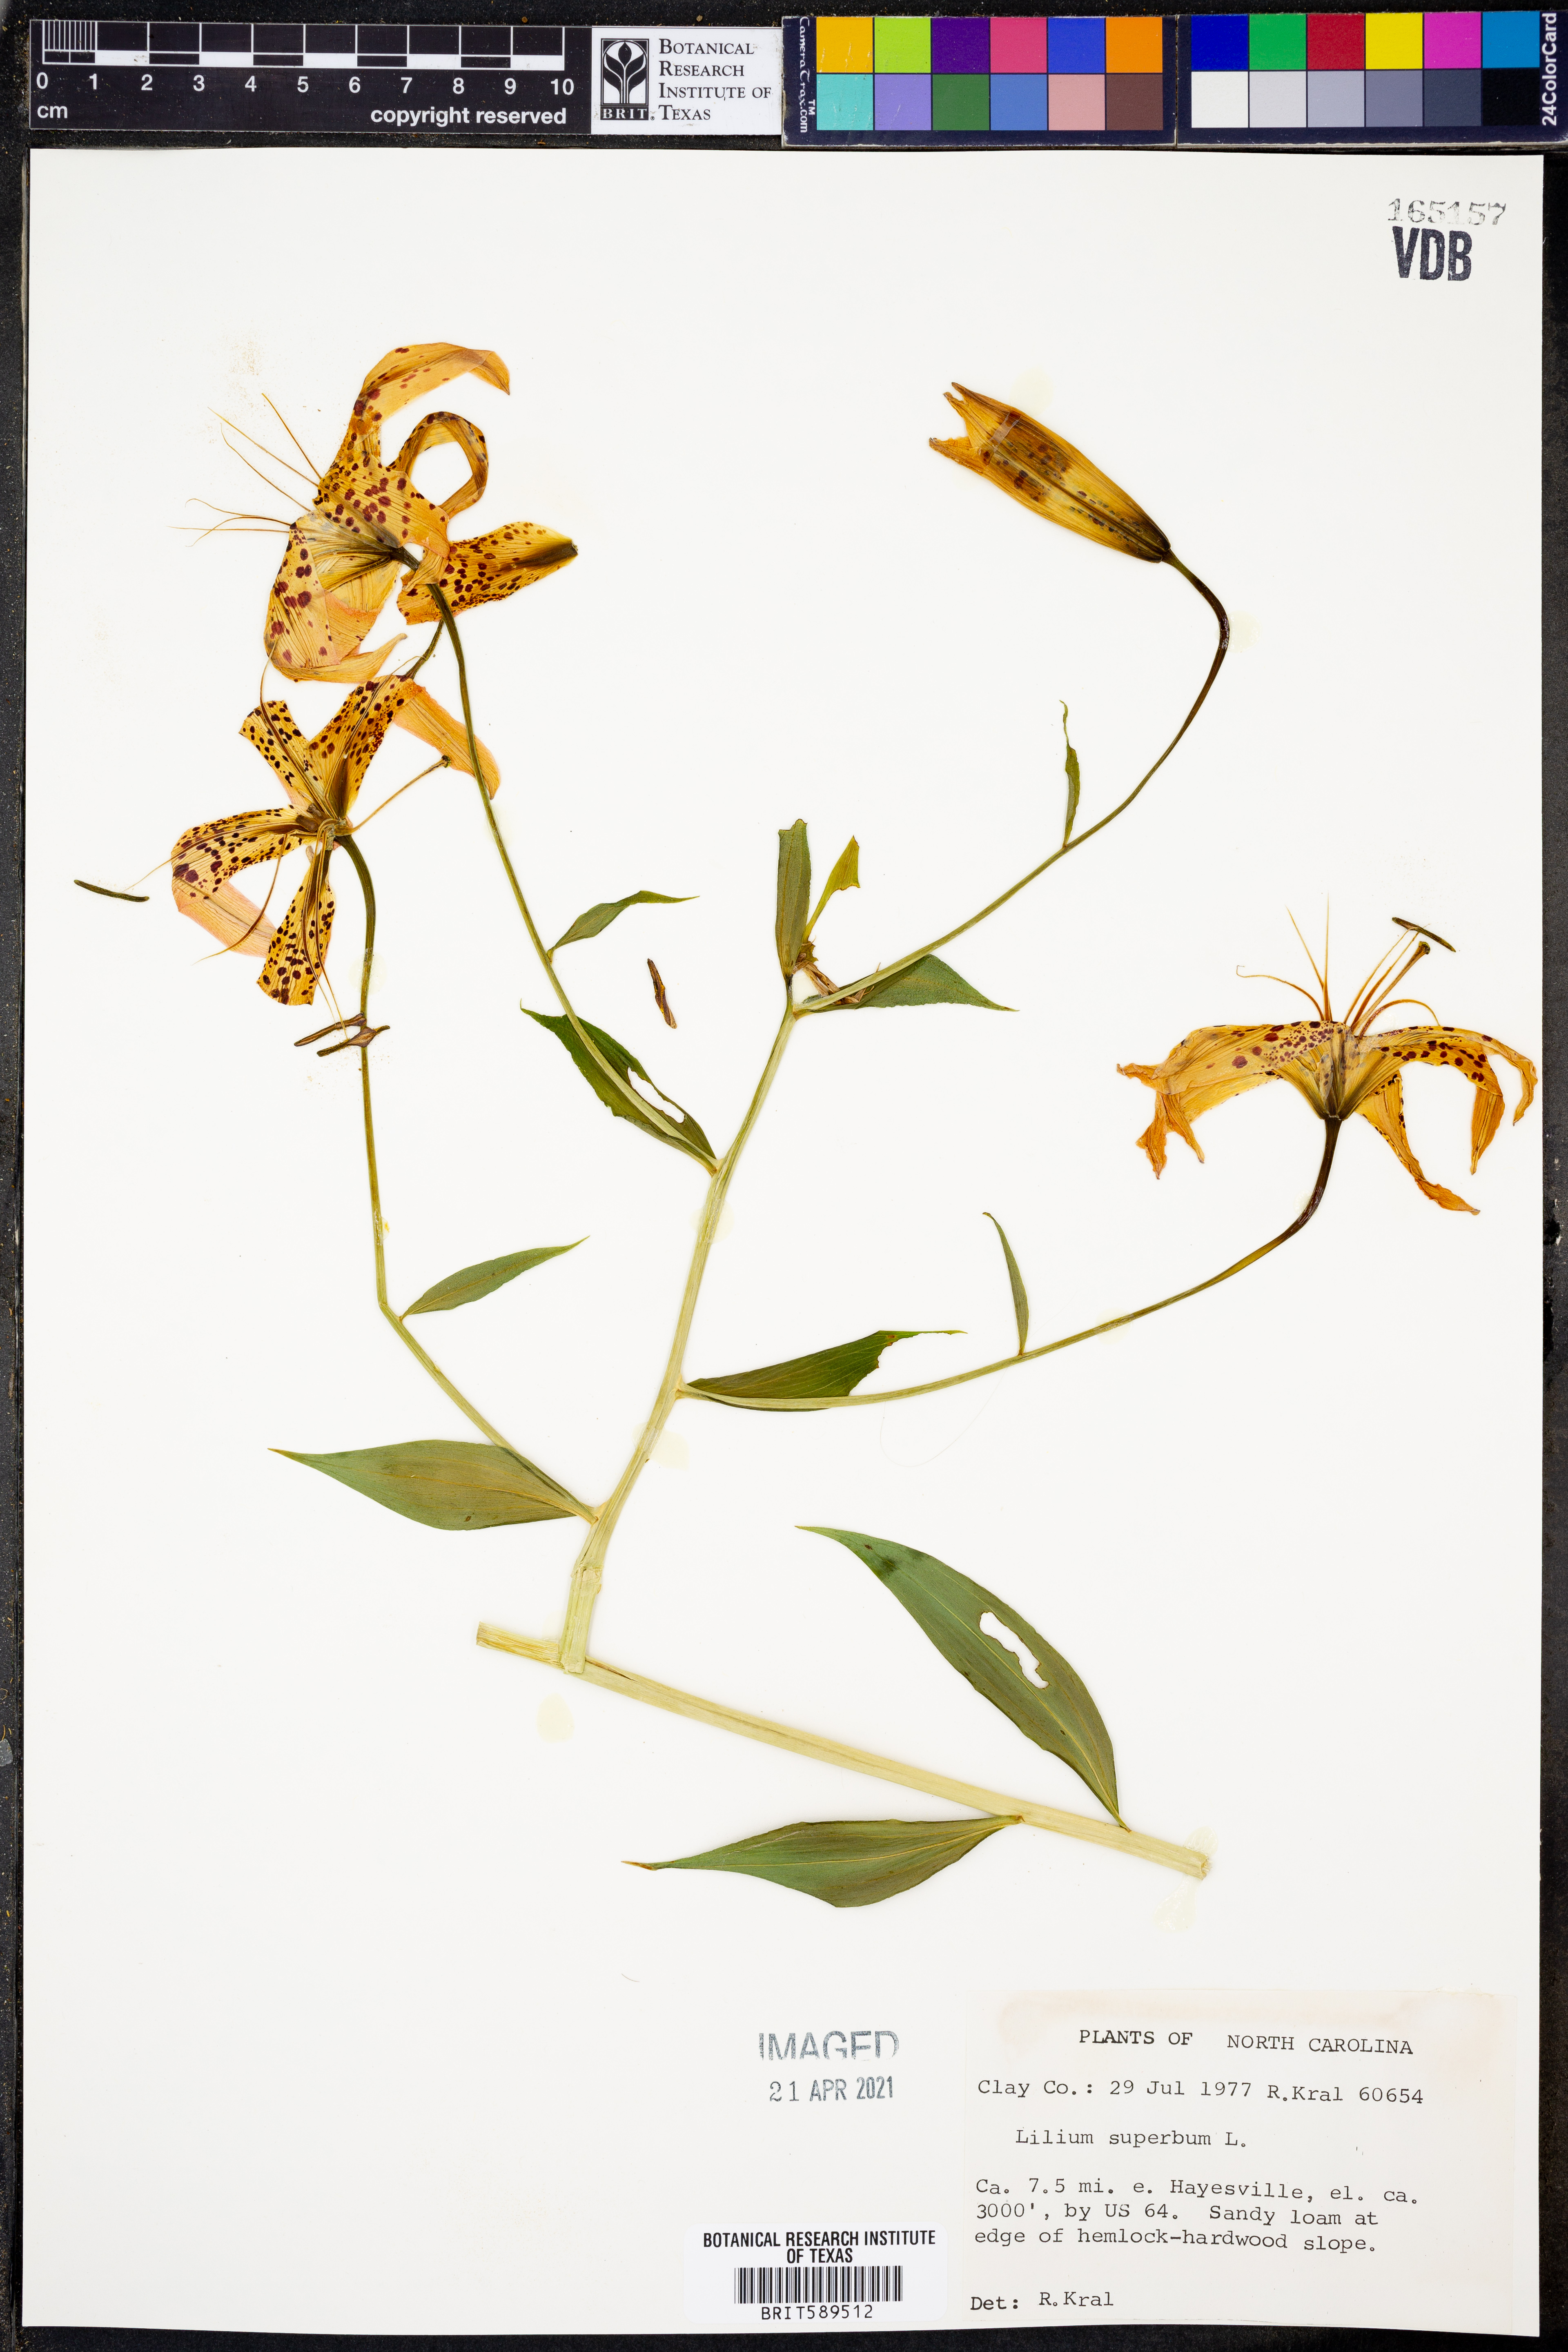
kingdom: Plantae
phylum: Tracheophyta
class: Liliopsida
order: Liliales
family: Liliaceae
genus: Lilium
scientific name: Lilium superbum
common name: American turk's-cap lily
